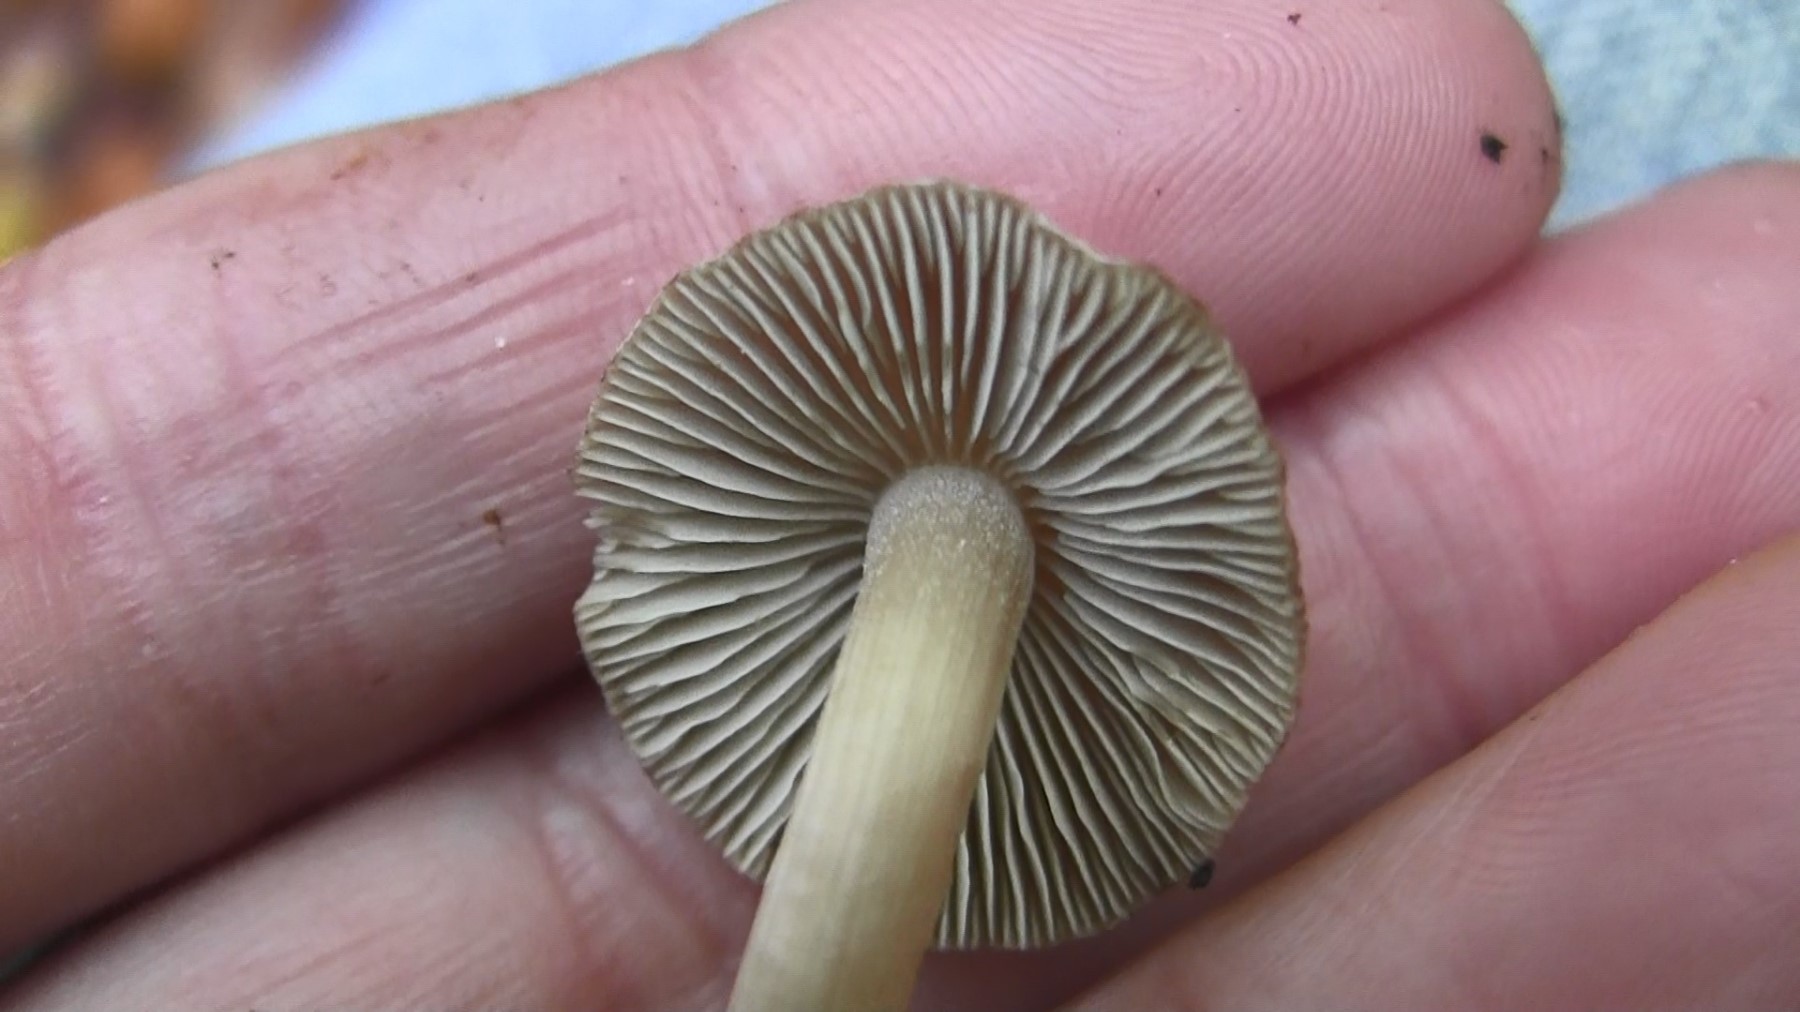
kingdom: Fungi
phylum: Basidiomycota
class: Agaricomycetes
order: Agaricales
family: Inocybaceae
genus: Inocybe
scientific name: Inocybe transitoria
